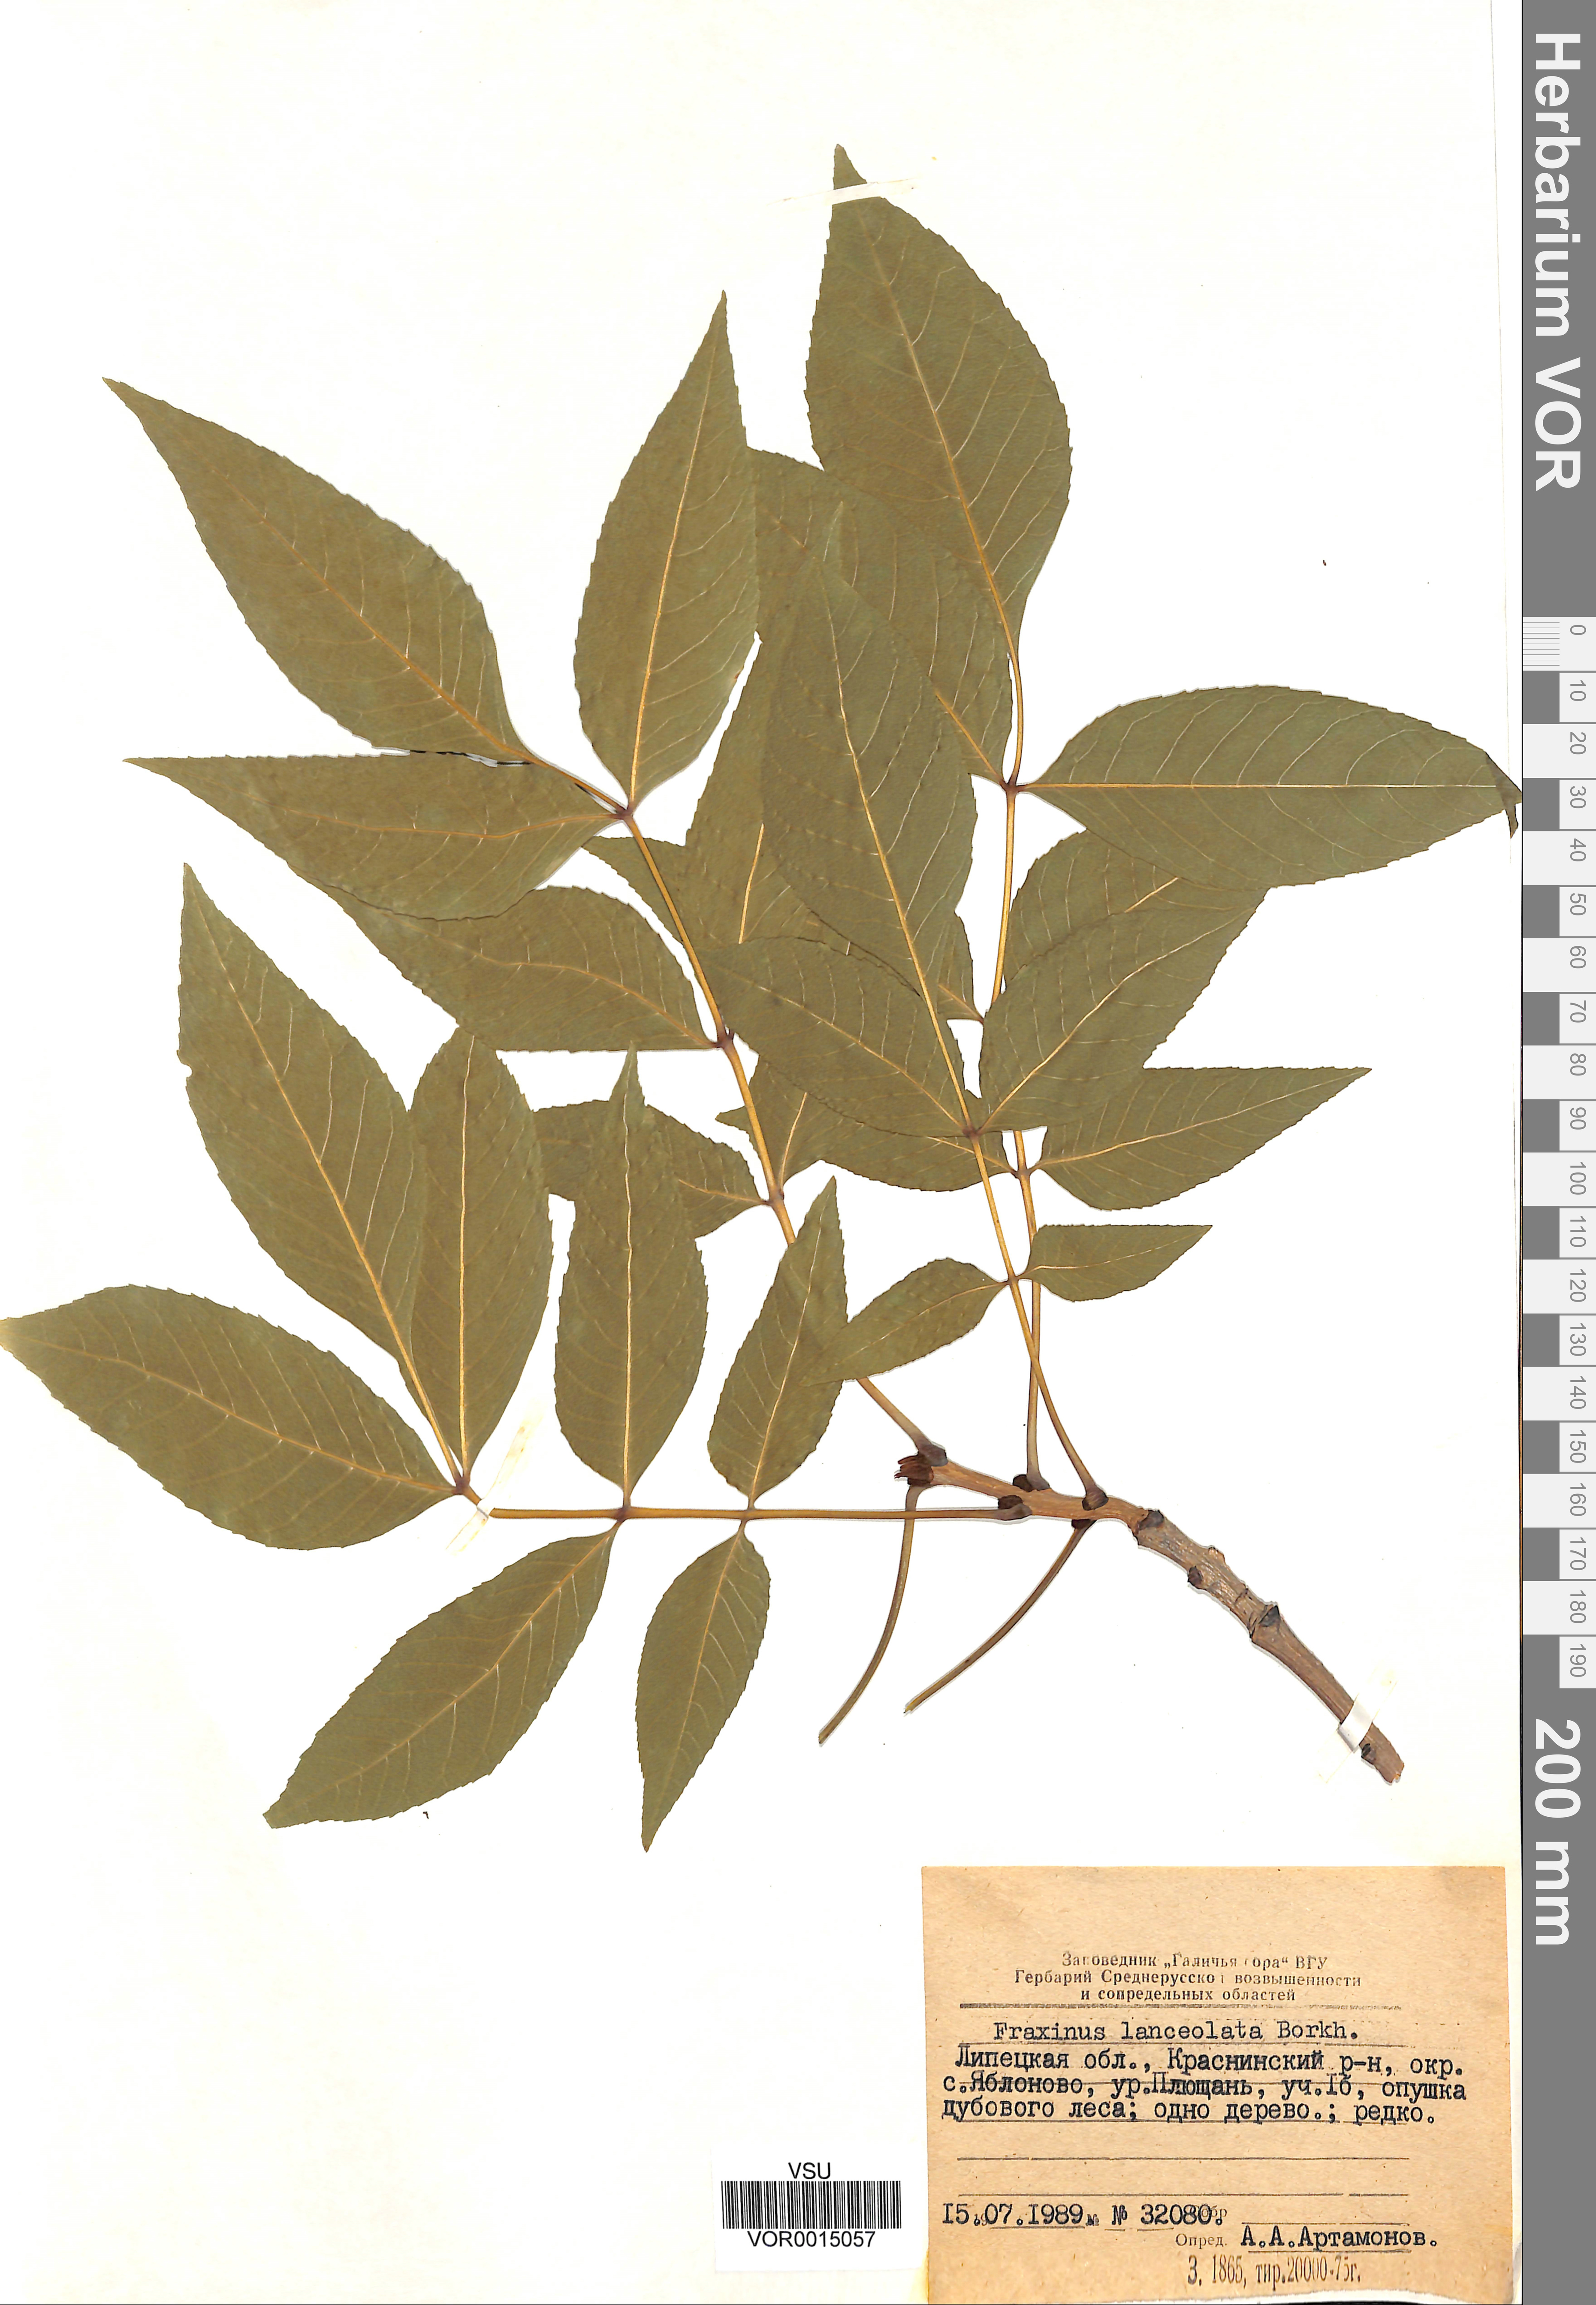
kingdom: Plantae
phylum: Tracheophyta
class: Magnoliopsida
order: Lamiales
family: Oleaceae
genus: Fraxinus
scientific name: Fraxinus pennsylvanica
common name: Green ash
